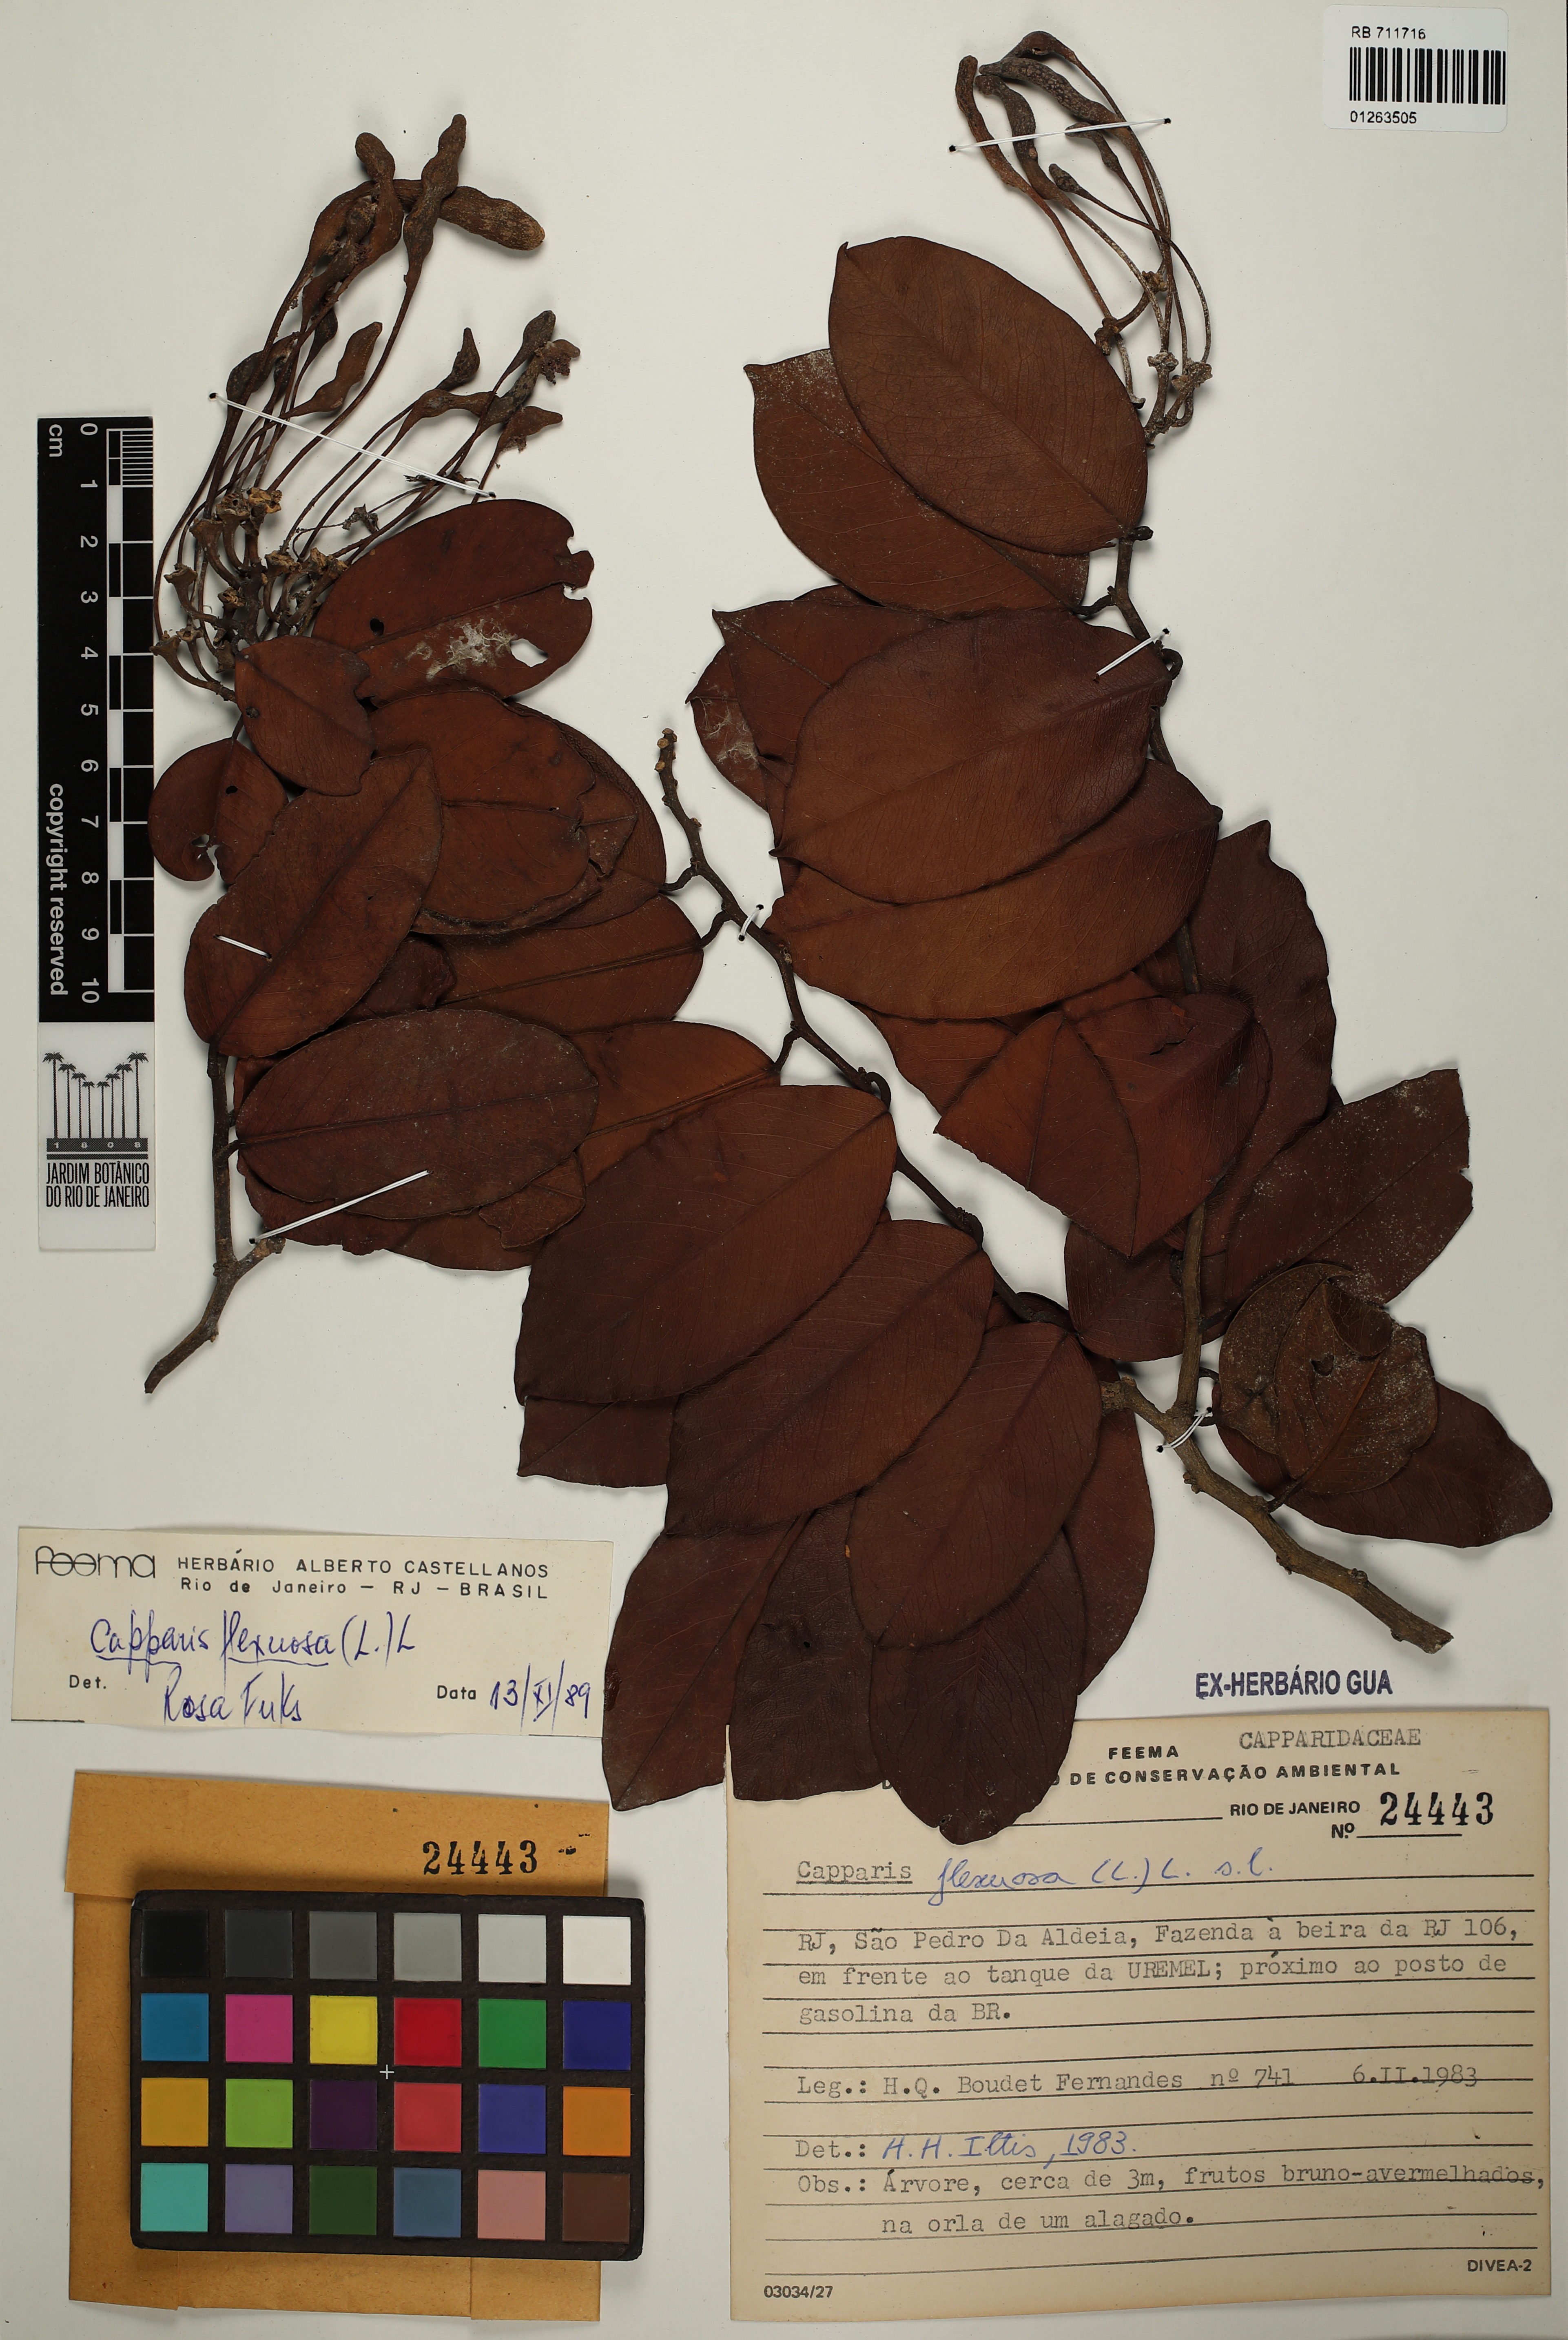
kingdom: Plantae
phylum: Tracheophyta
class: Magnoliopsida
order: Brassicales
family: Capparaceae
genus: Cynophalla
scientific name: Cynophalla flexuosa
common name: Capertree
